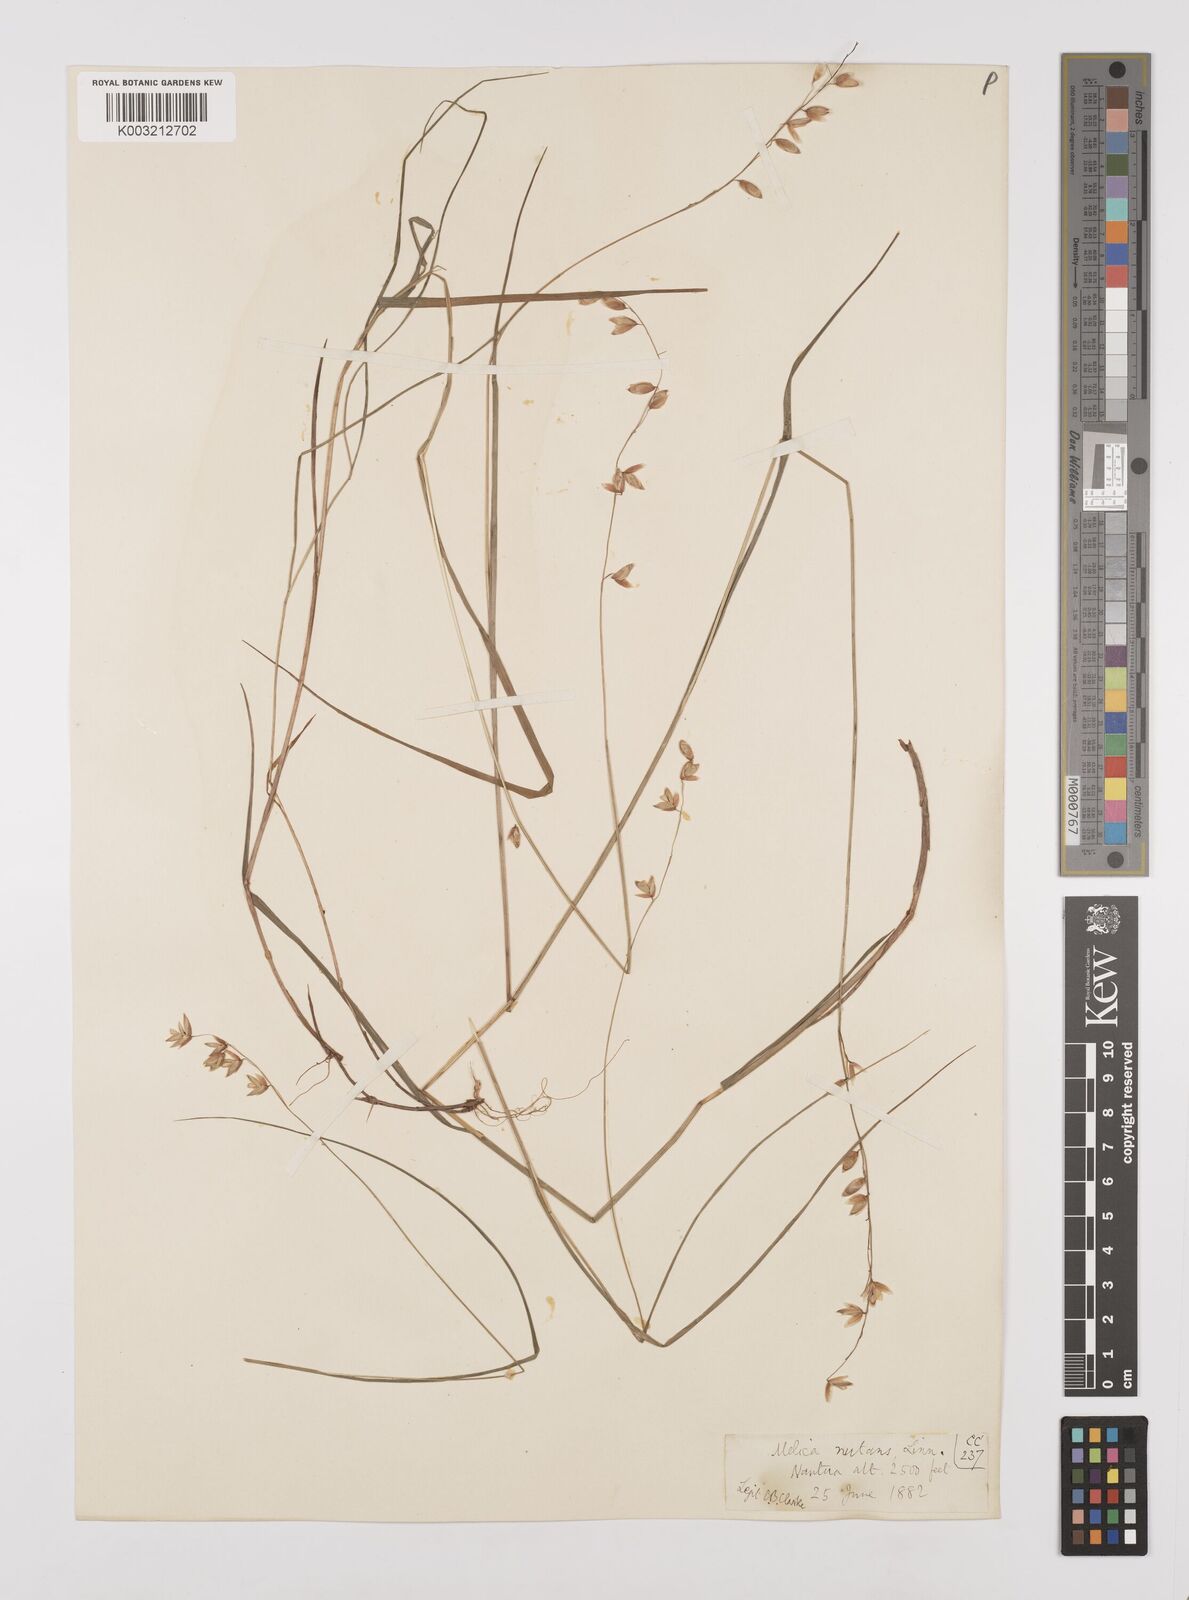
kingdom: Plantae
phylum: Tracheophyta
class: Liliopsida
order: Poales
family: Poaceae
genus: Melica
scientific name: Melica nutans
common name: Mountain melick
